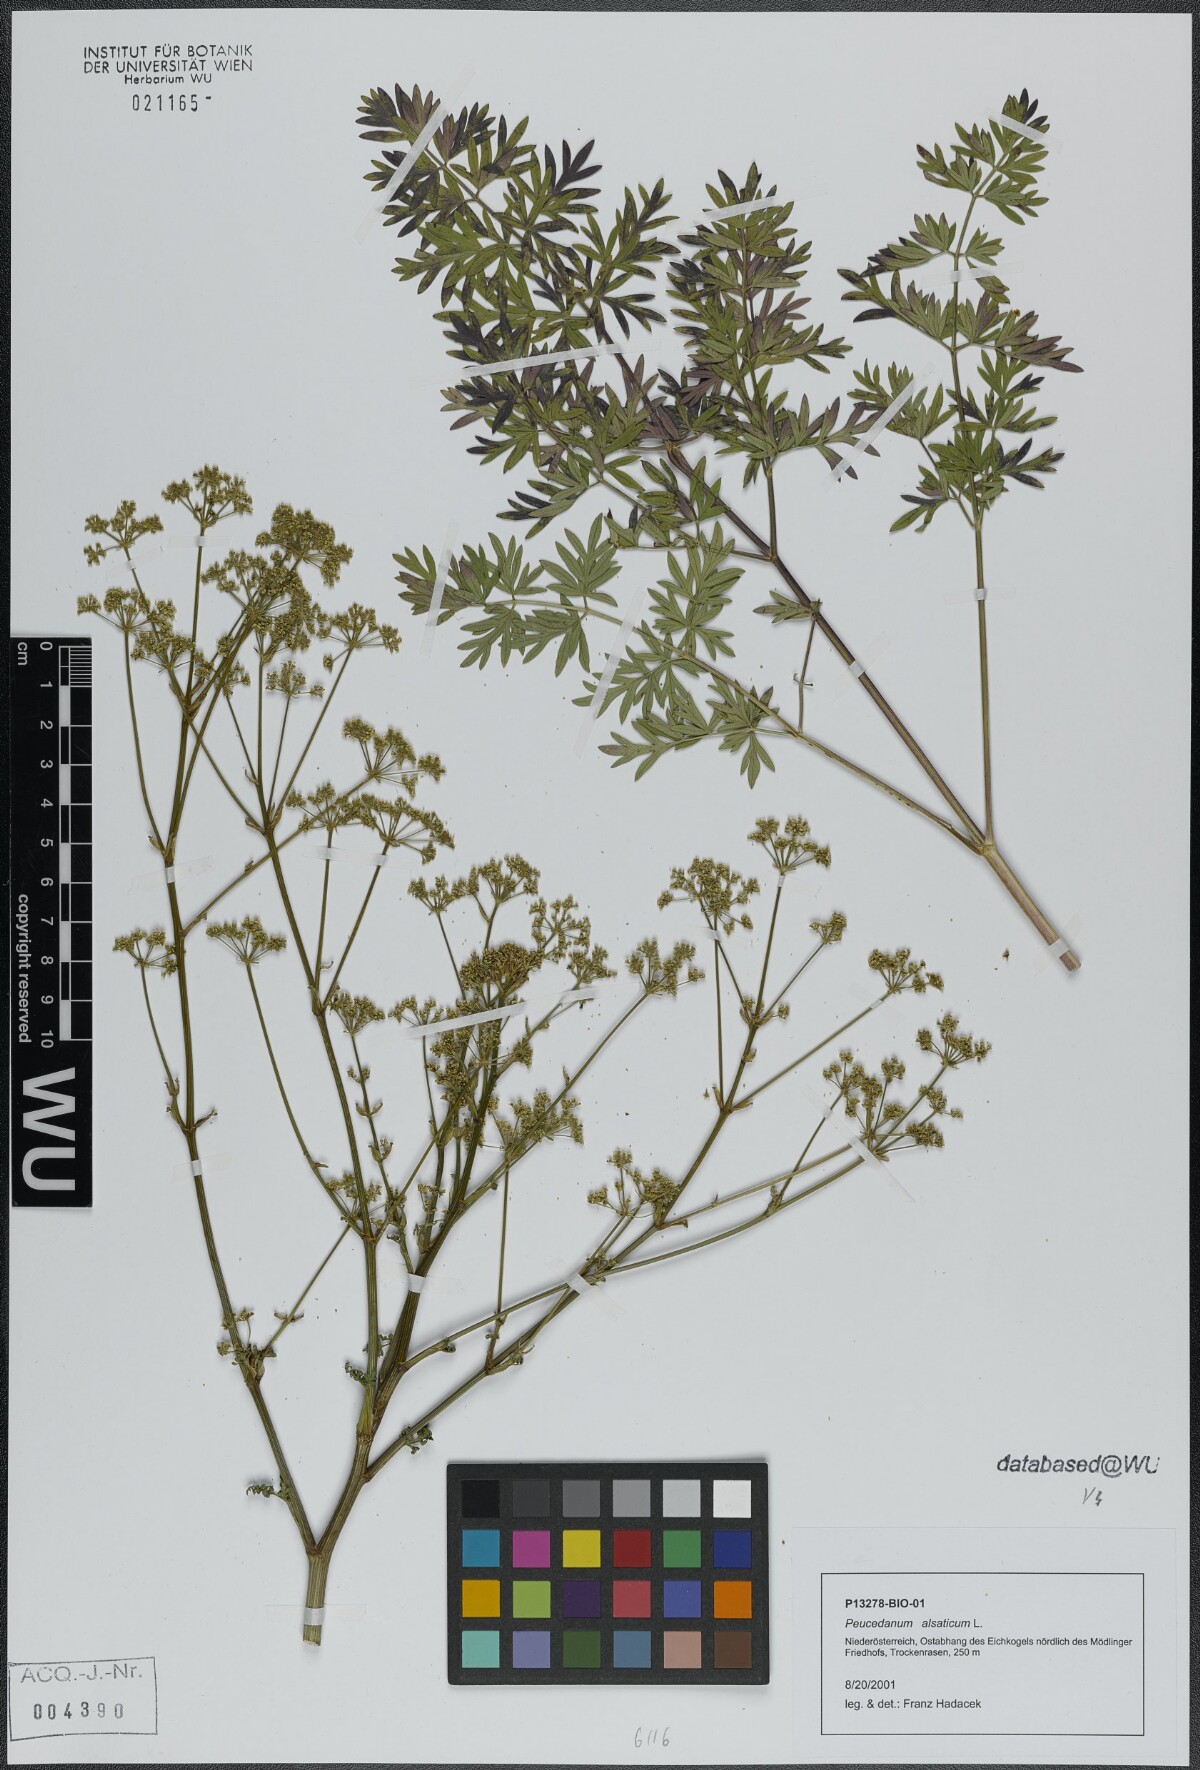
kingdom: Plantae
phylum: Tracheophyta
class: Magnoliopsida
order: Apiales
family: Apiaceae
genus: Xanthoselinum
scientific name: Xanthoselinum alsaticum
